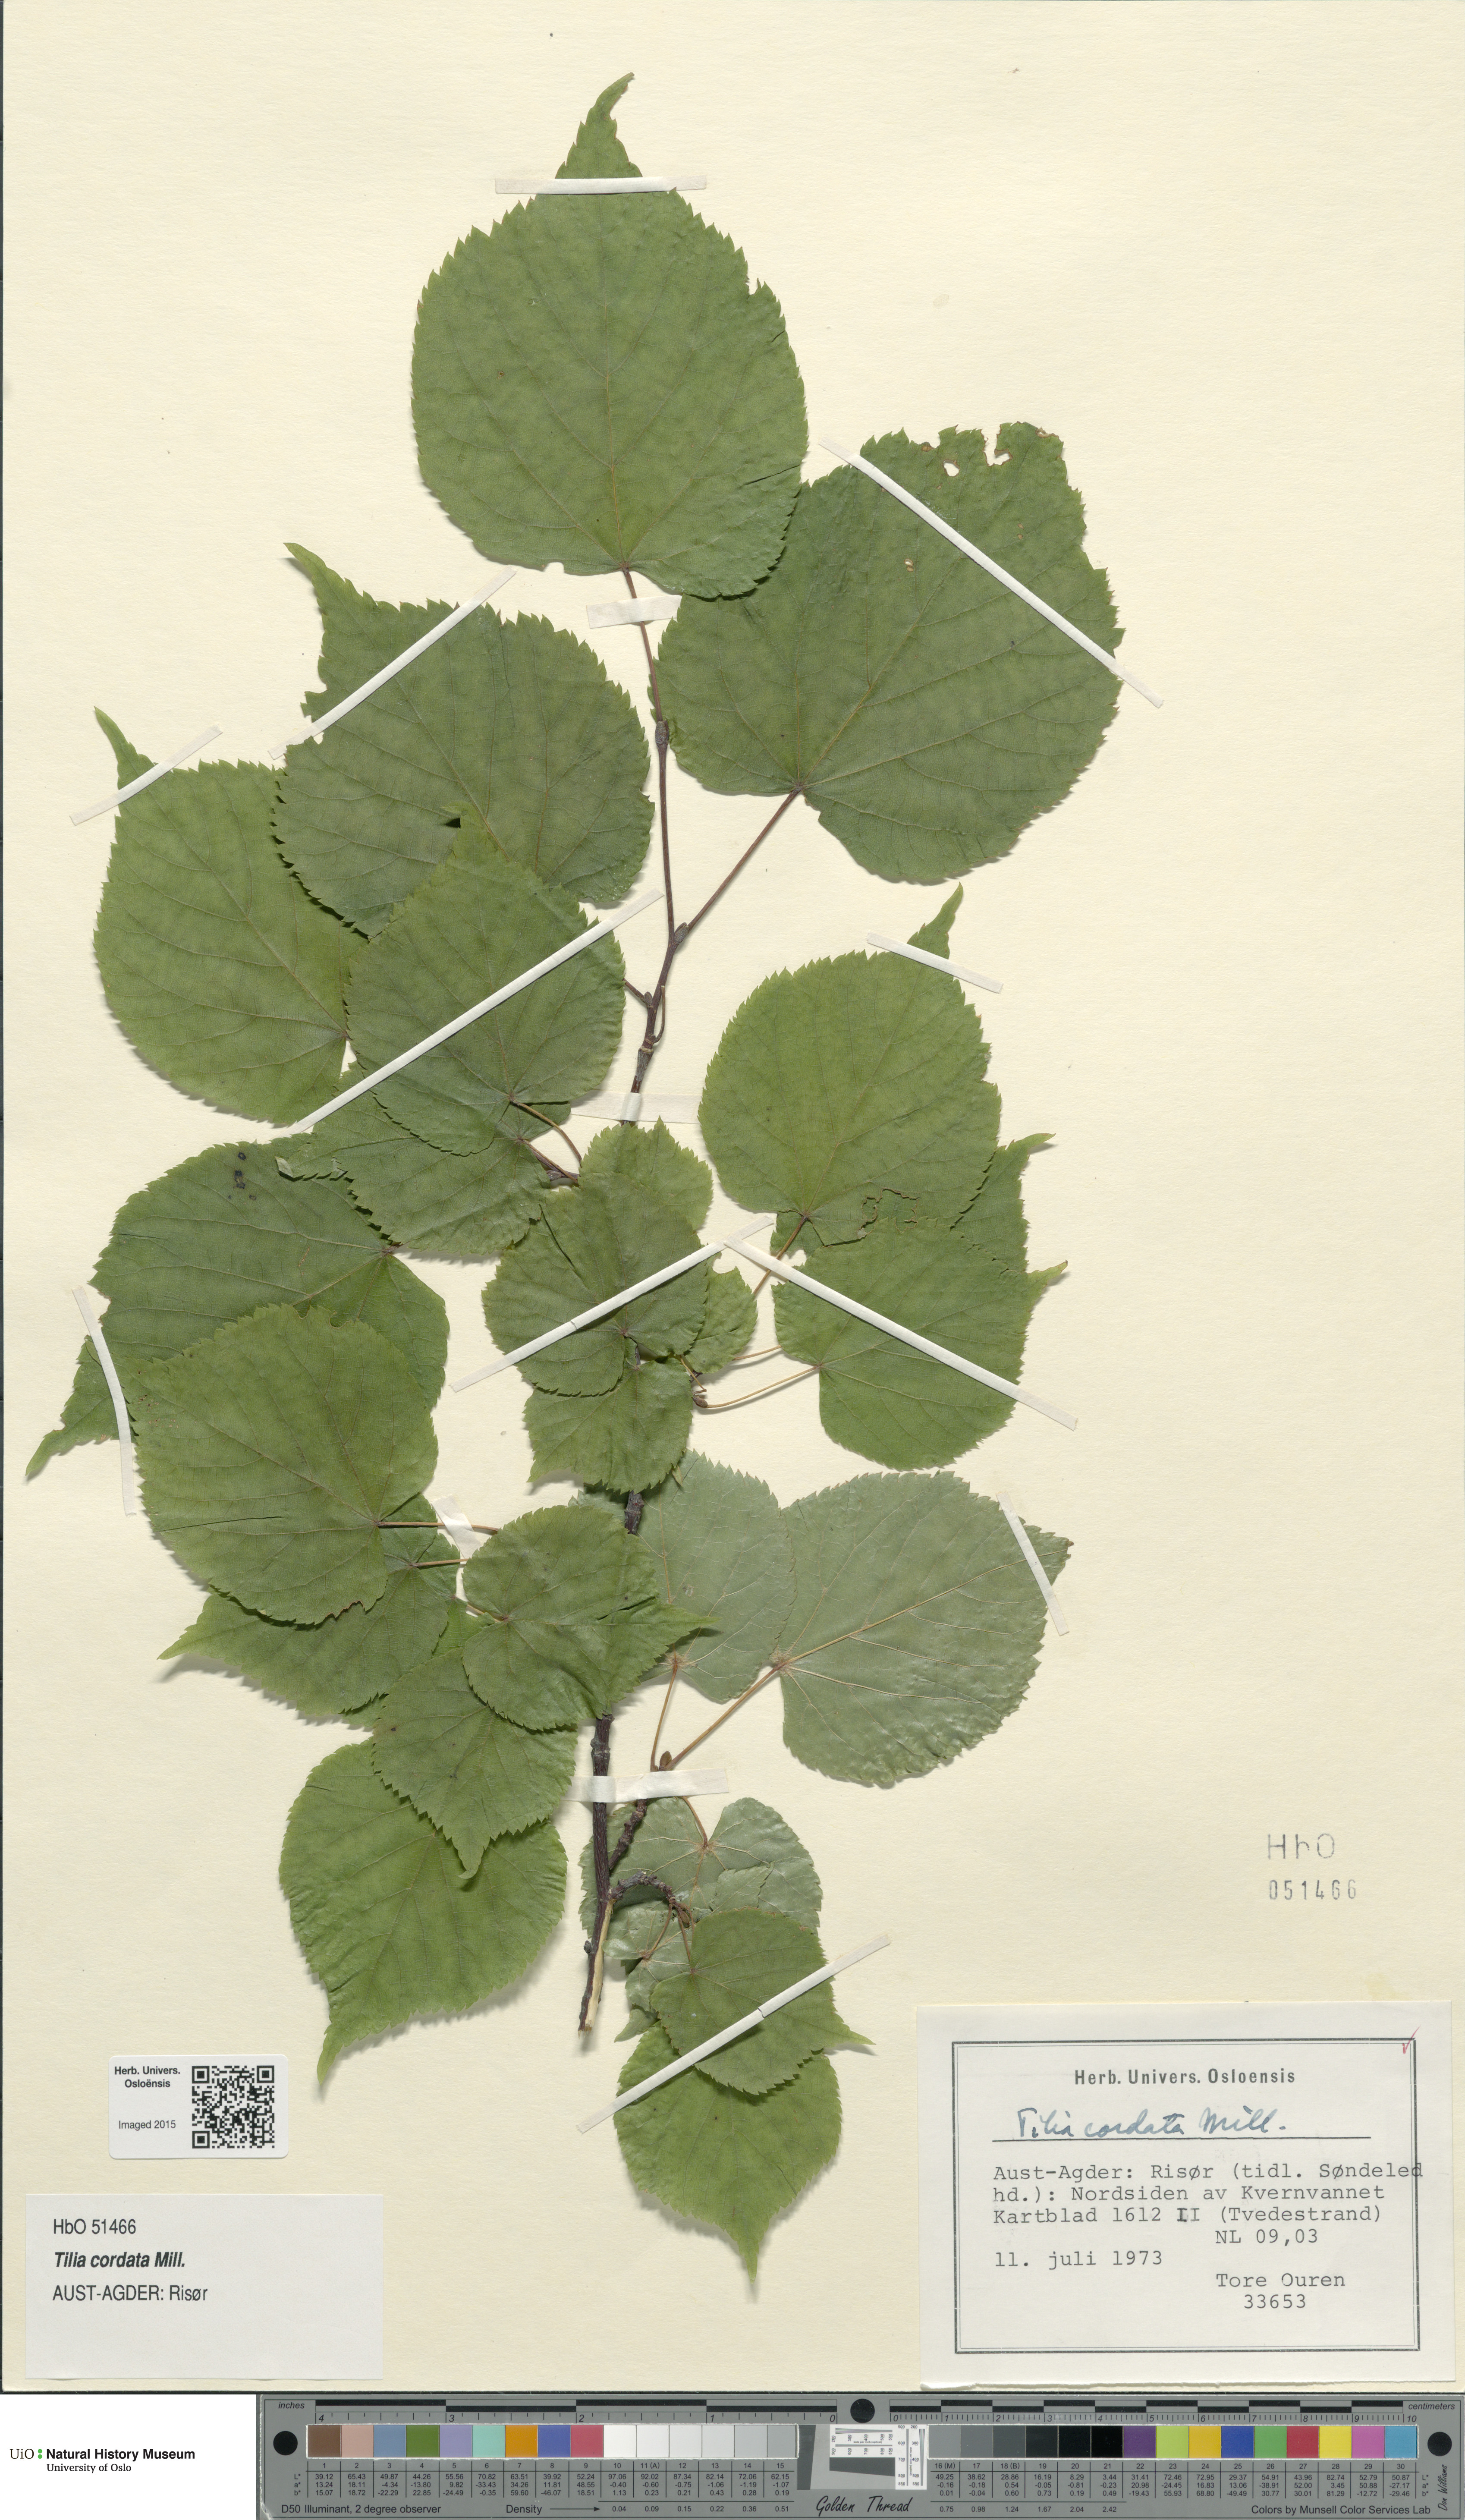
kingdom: Plantae
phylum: Tracheophyta
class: Magnoliopsida
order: Malvales
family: Malvaceae
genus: Tilia
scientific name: Tilia cordata
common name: Small-leaved lime
